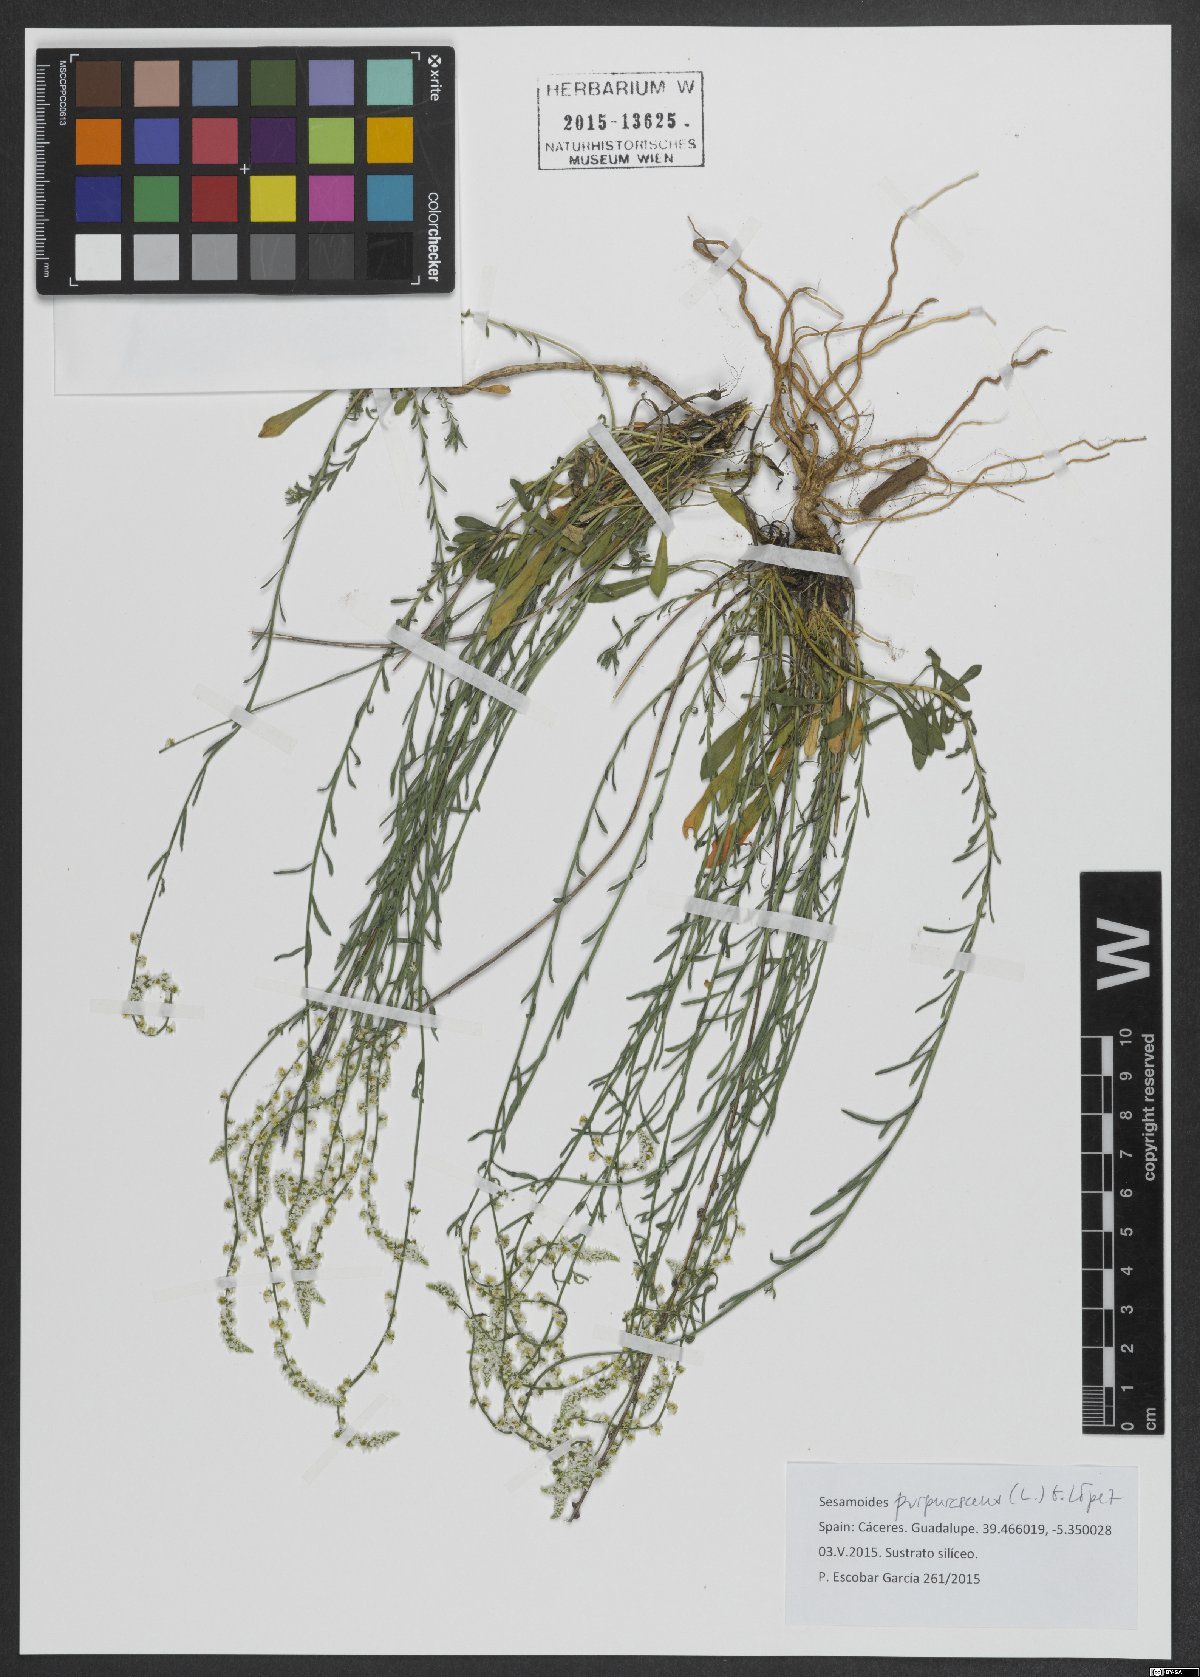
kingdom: Plantae
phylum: Tracheophyta
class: Magnoliopsida
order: Brassicales
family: Resedaceae
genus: Sesamoides
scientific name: Sesamoides purpurascens
